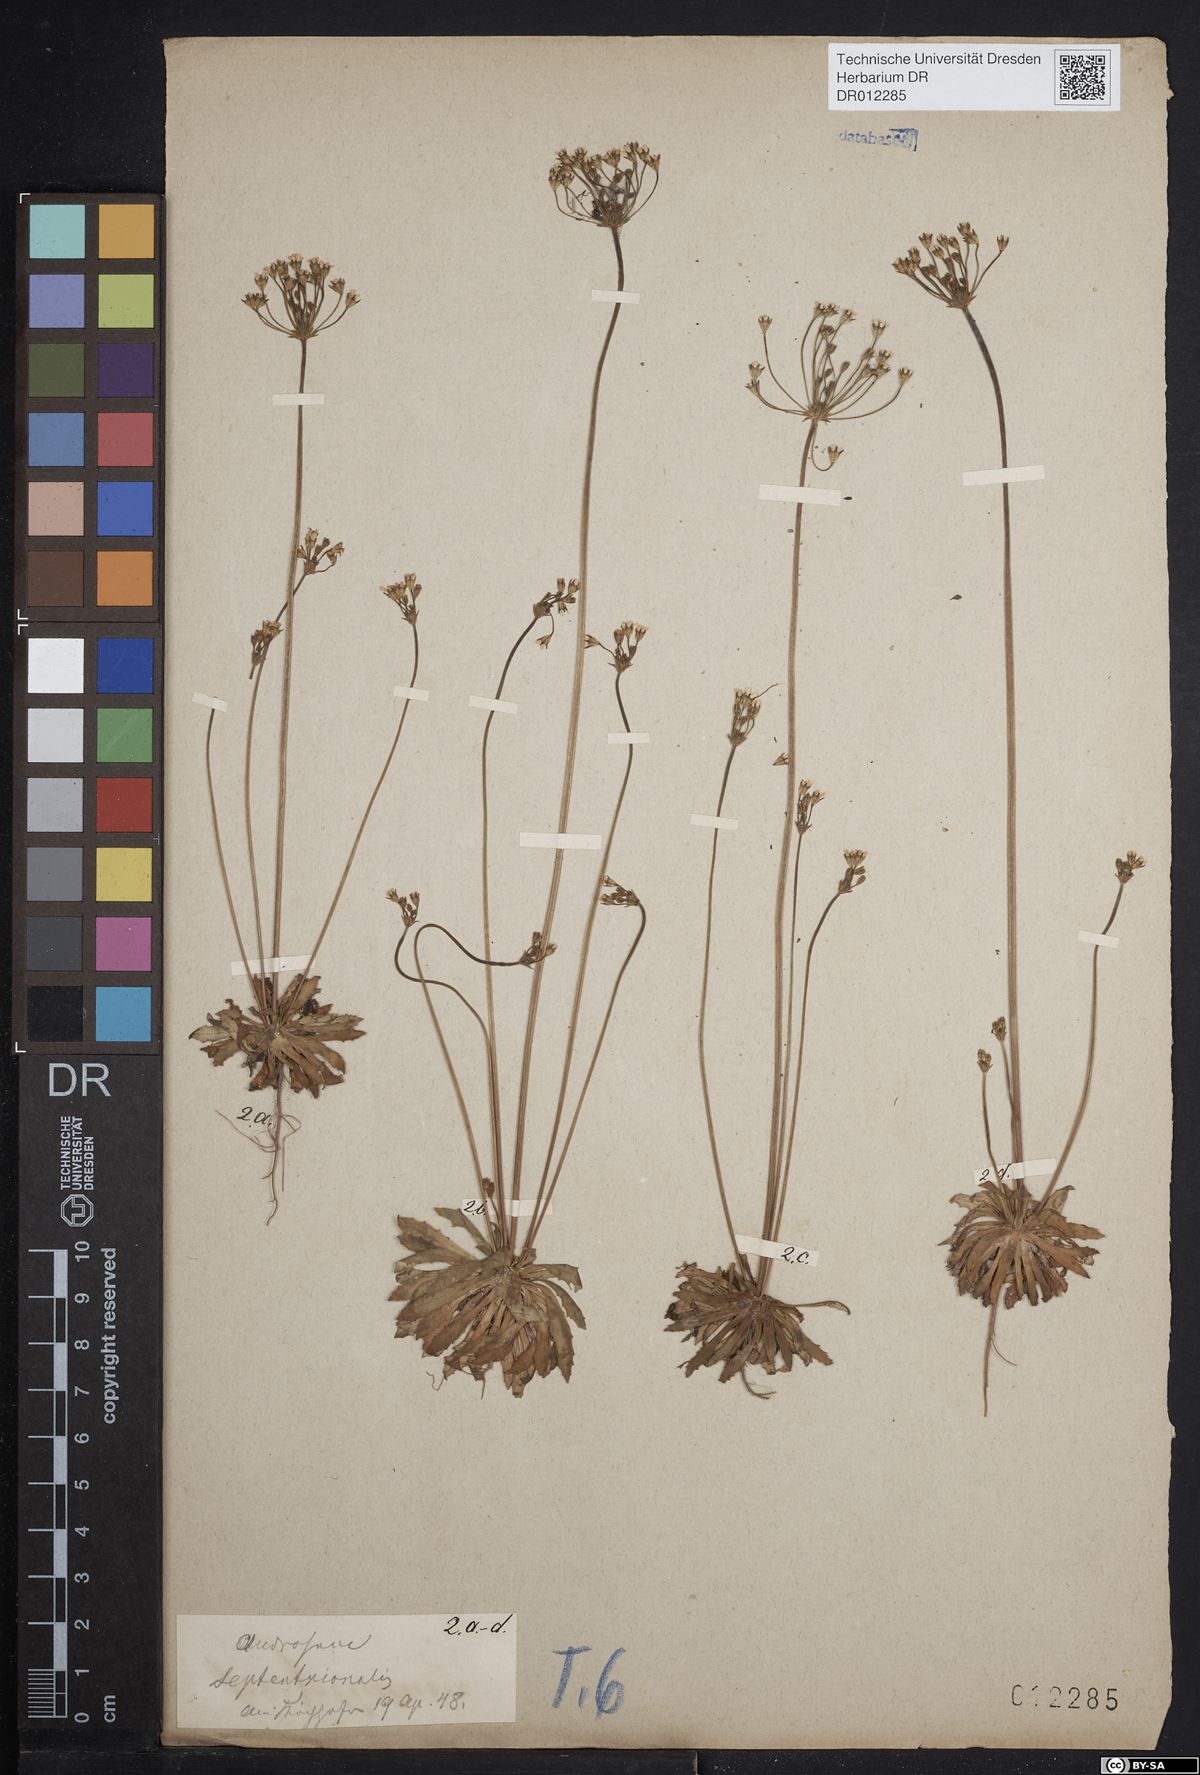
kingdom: Plantae
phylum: Tracheophyta
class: Magnoliopsida
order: Ericales
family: Primulaceae
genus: Androsace
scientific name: Androsace septentrionalis
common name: Hairy northern fairy-candelabra
